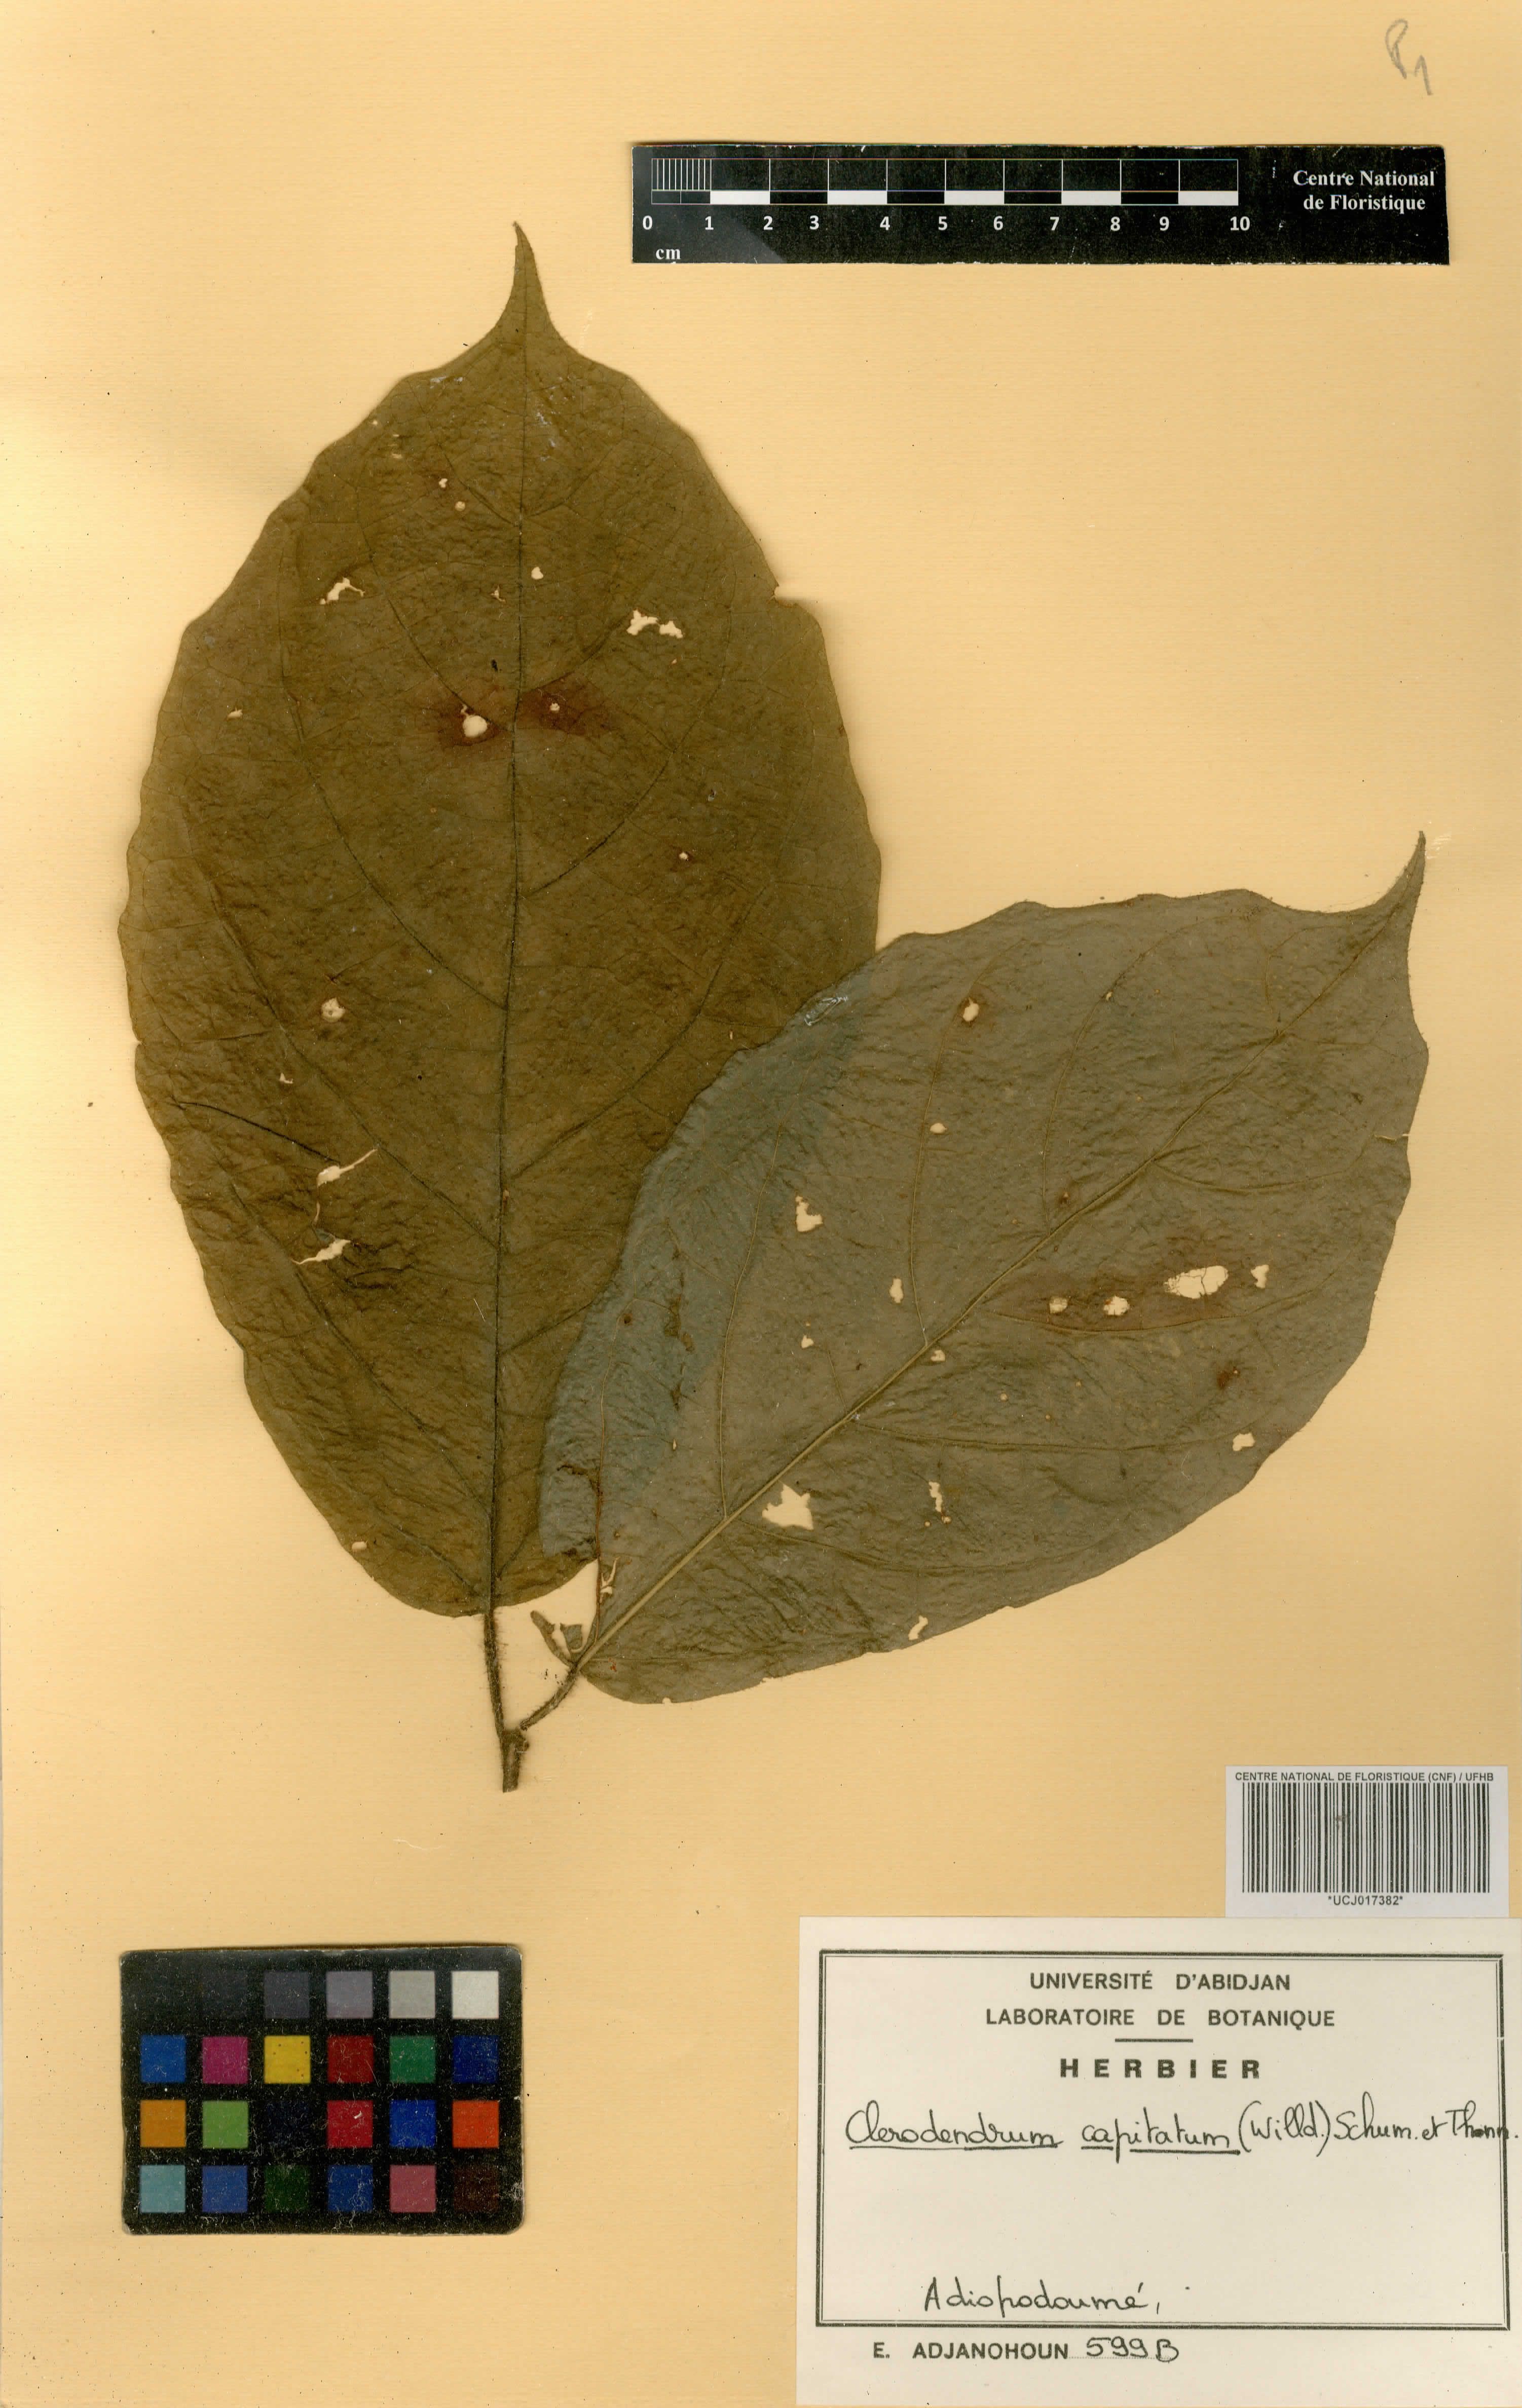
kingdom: Plantae
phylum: Tracheophyta
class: Magnoliopsida
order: Lamiales
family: Lamiaceae
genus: Clerodendrum
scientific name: Clerodendrum capitatum
